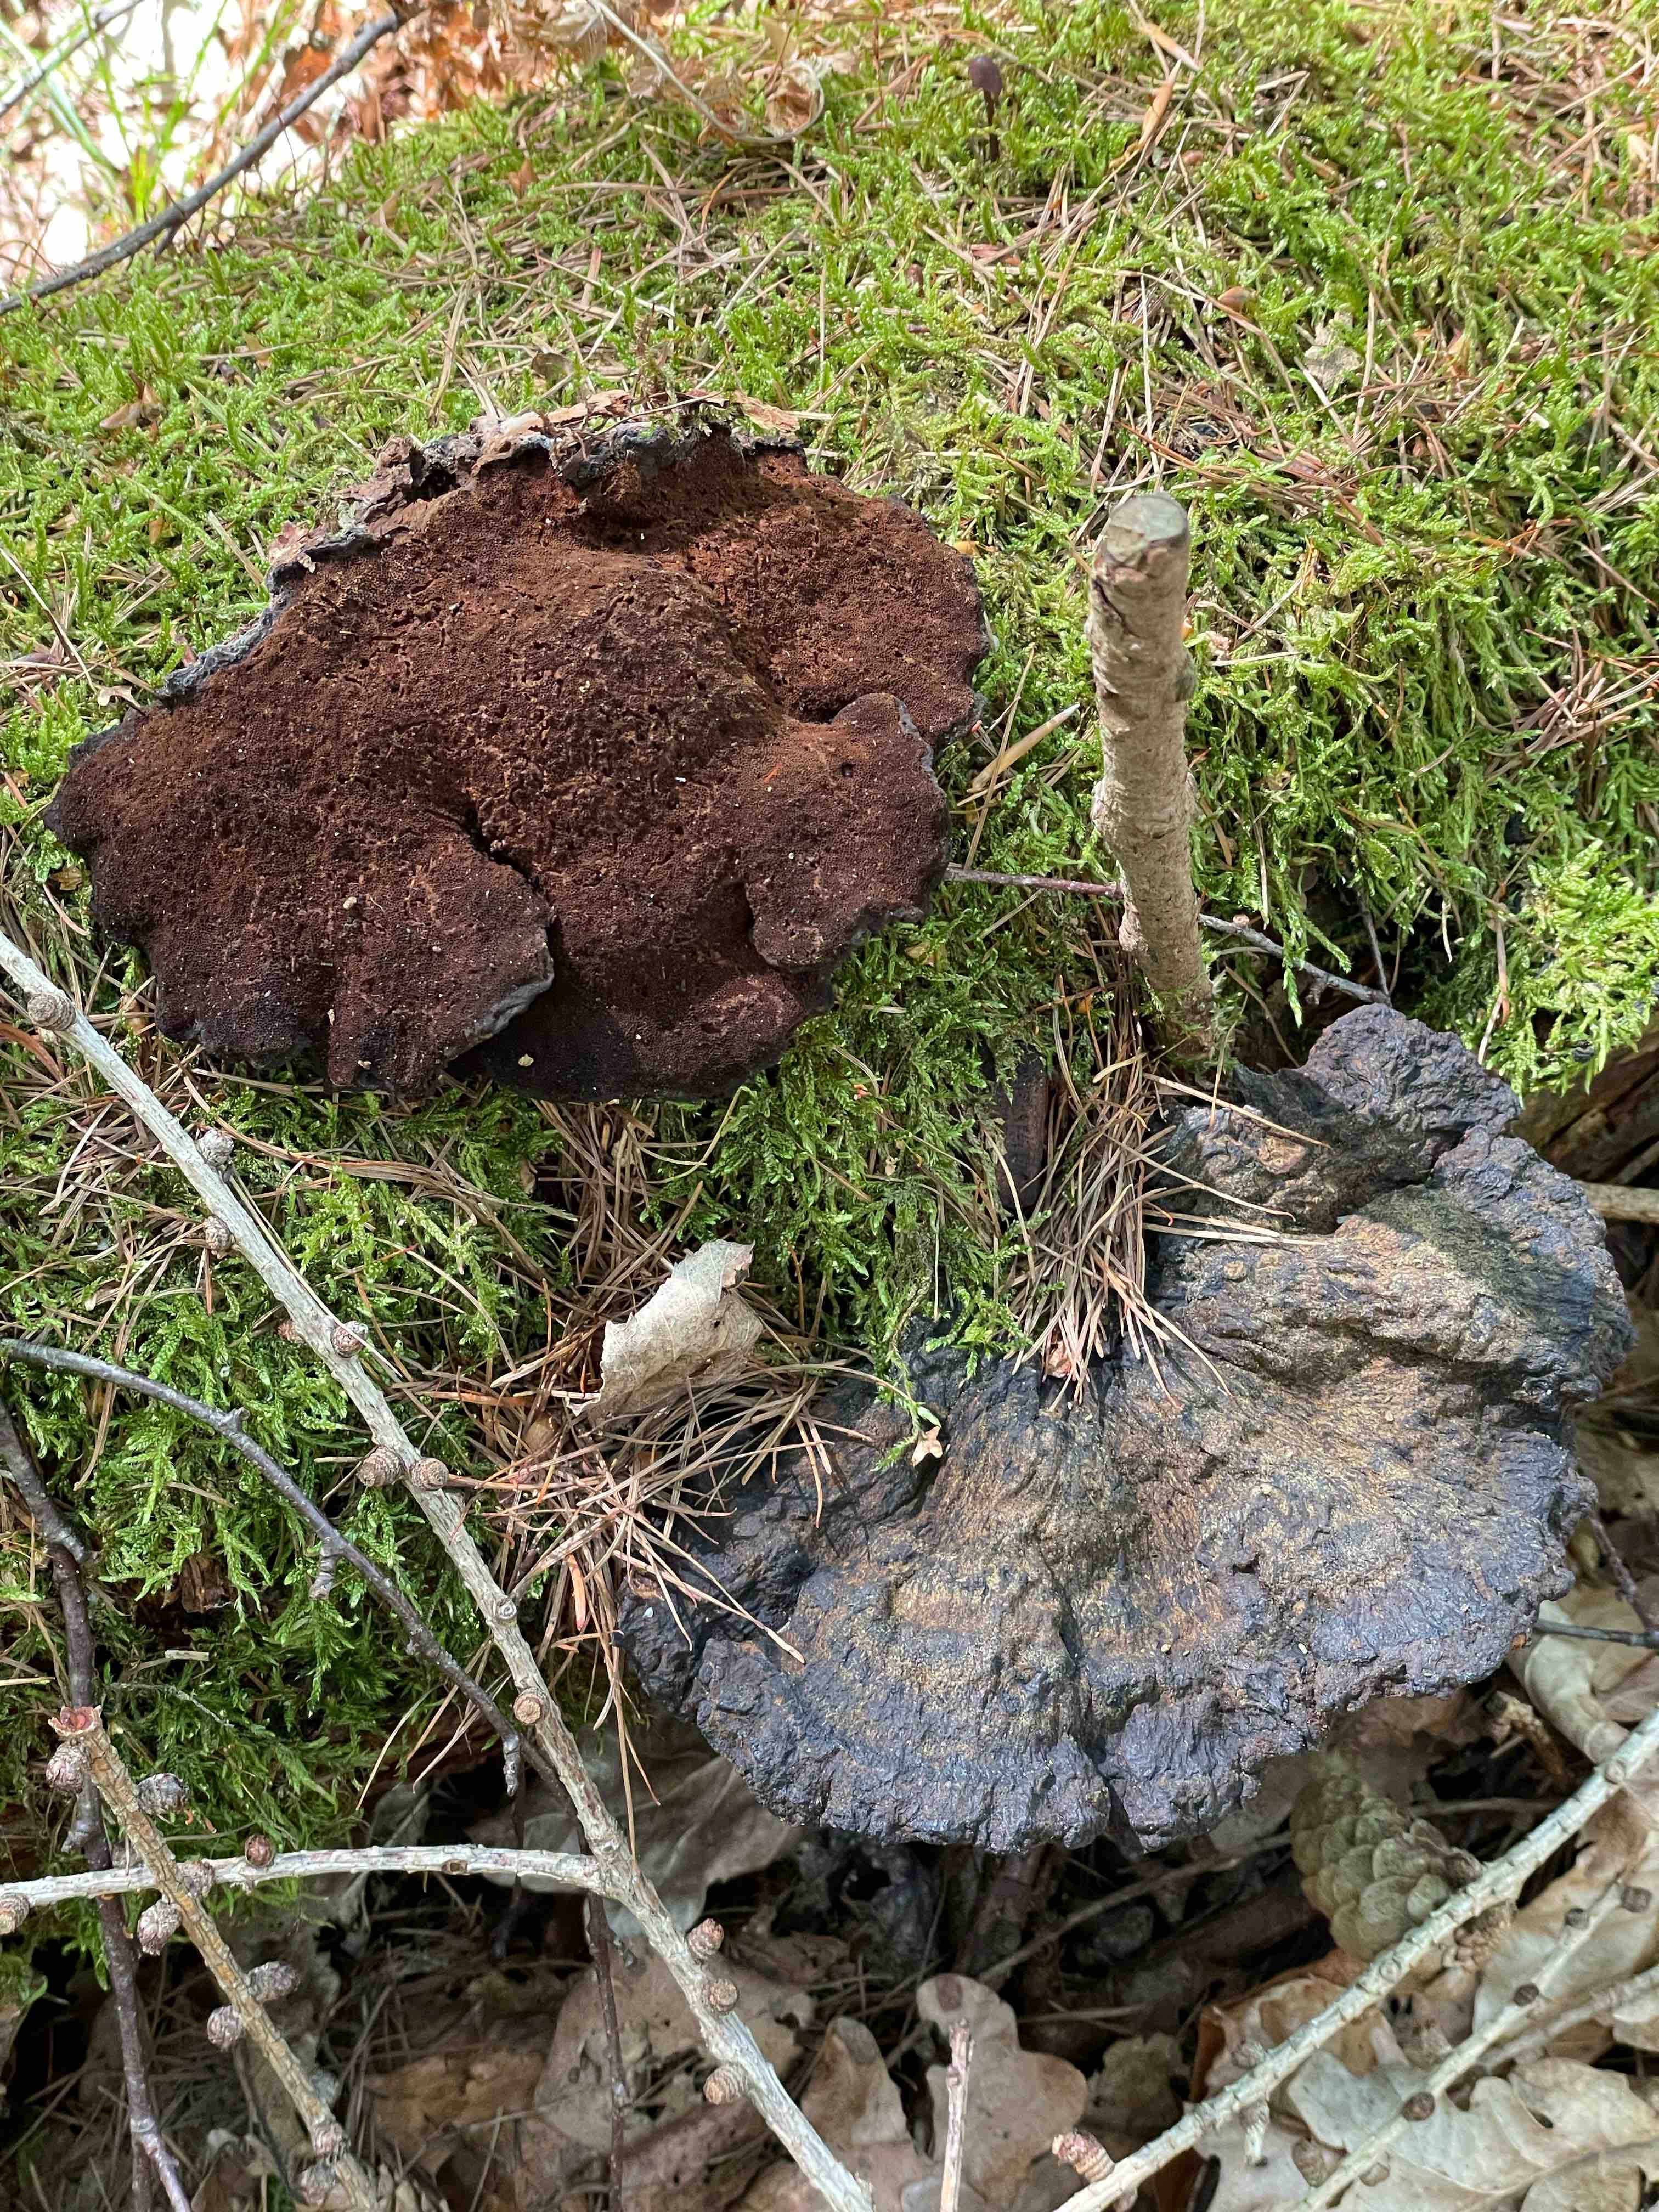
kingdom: Fungi
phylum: Basidiomycota
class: Agaricomycetes
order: Polyporales
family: Ischnodermataceae
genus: Ischnoderma
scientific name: Ischnoderma benzoinum
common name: gran-tjæreporesvamp
